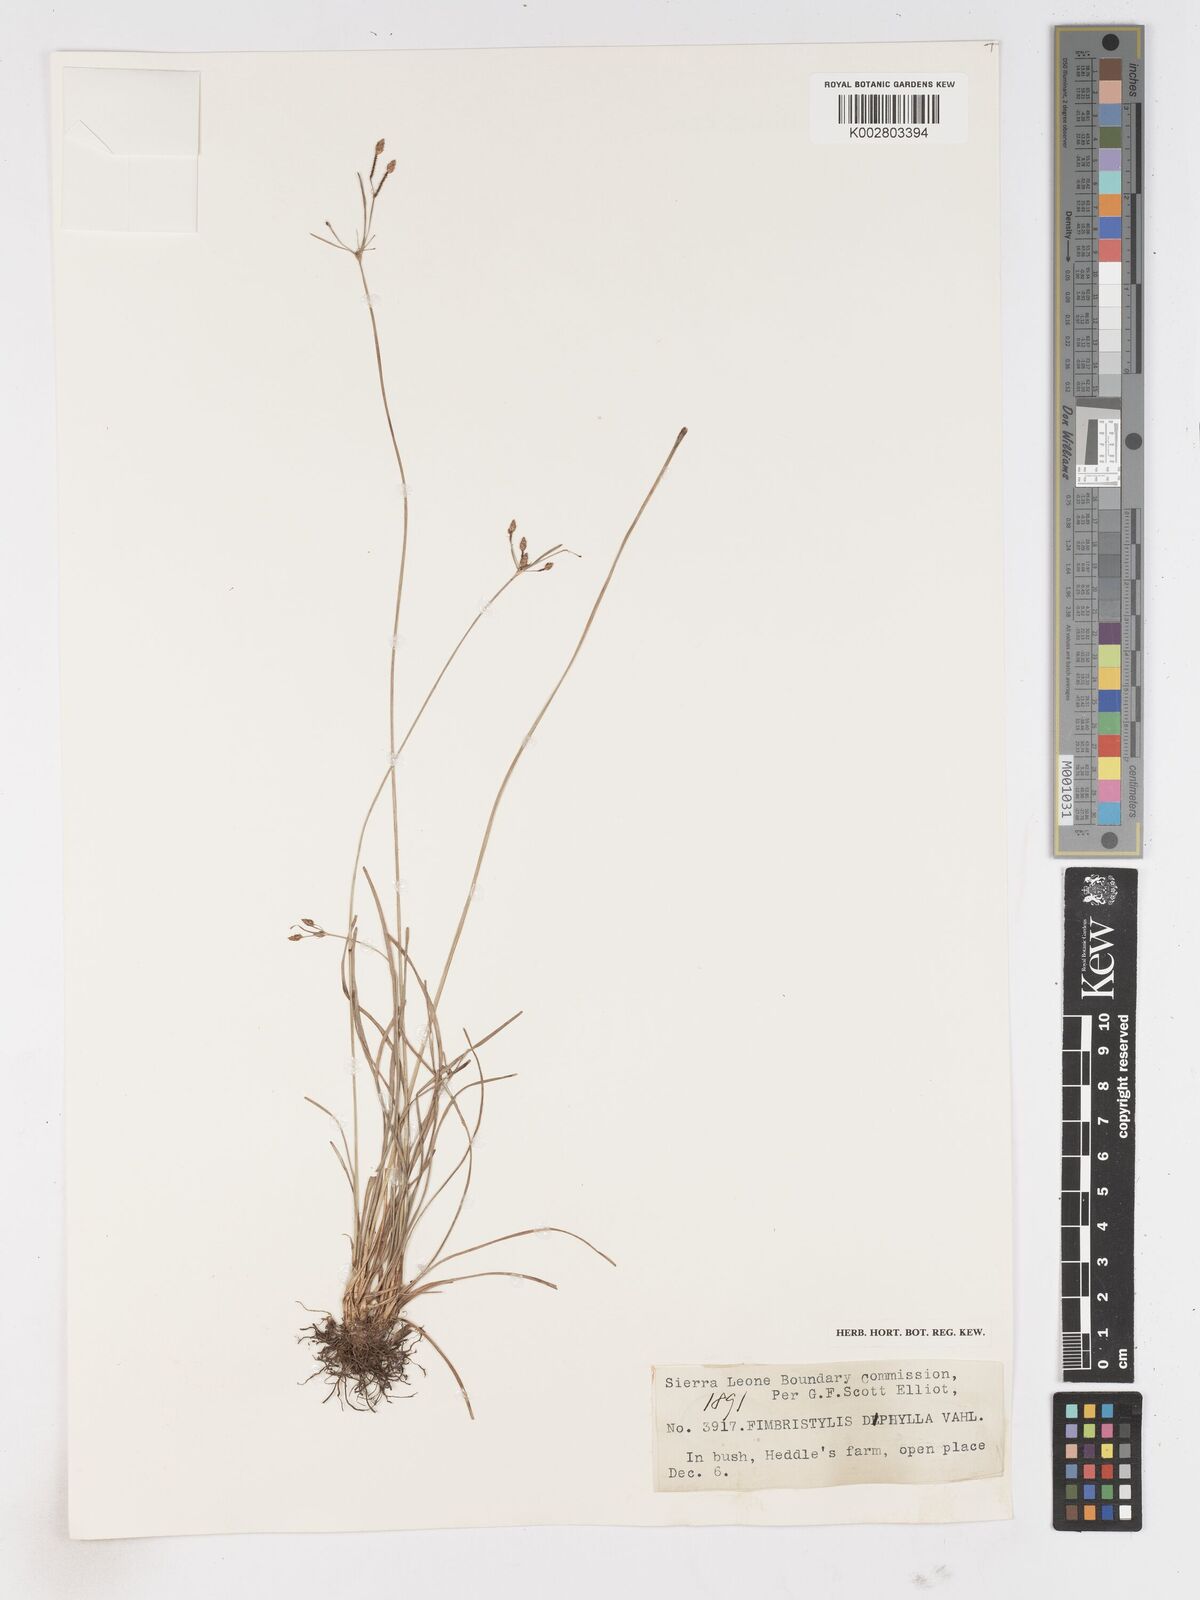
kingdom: Plantae
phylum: Tracheophyta
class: Liliopsida
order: Poales
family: Cyperaceae
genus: Fimbristylis
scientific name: Fimbristylis dichotoma
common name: Forked fimbry
